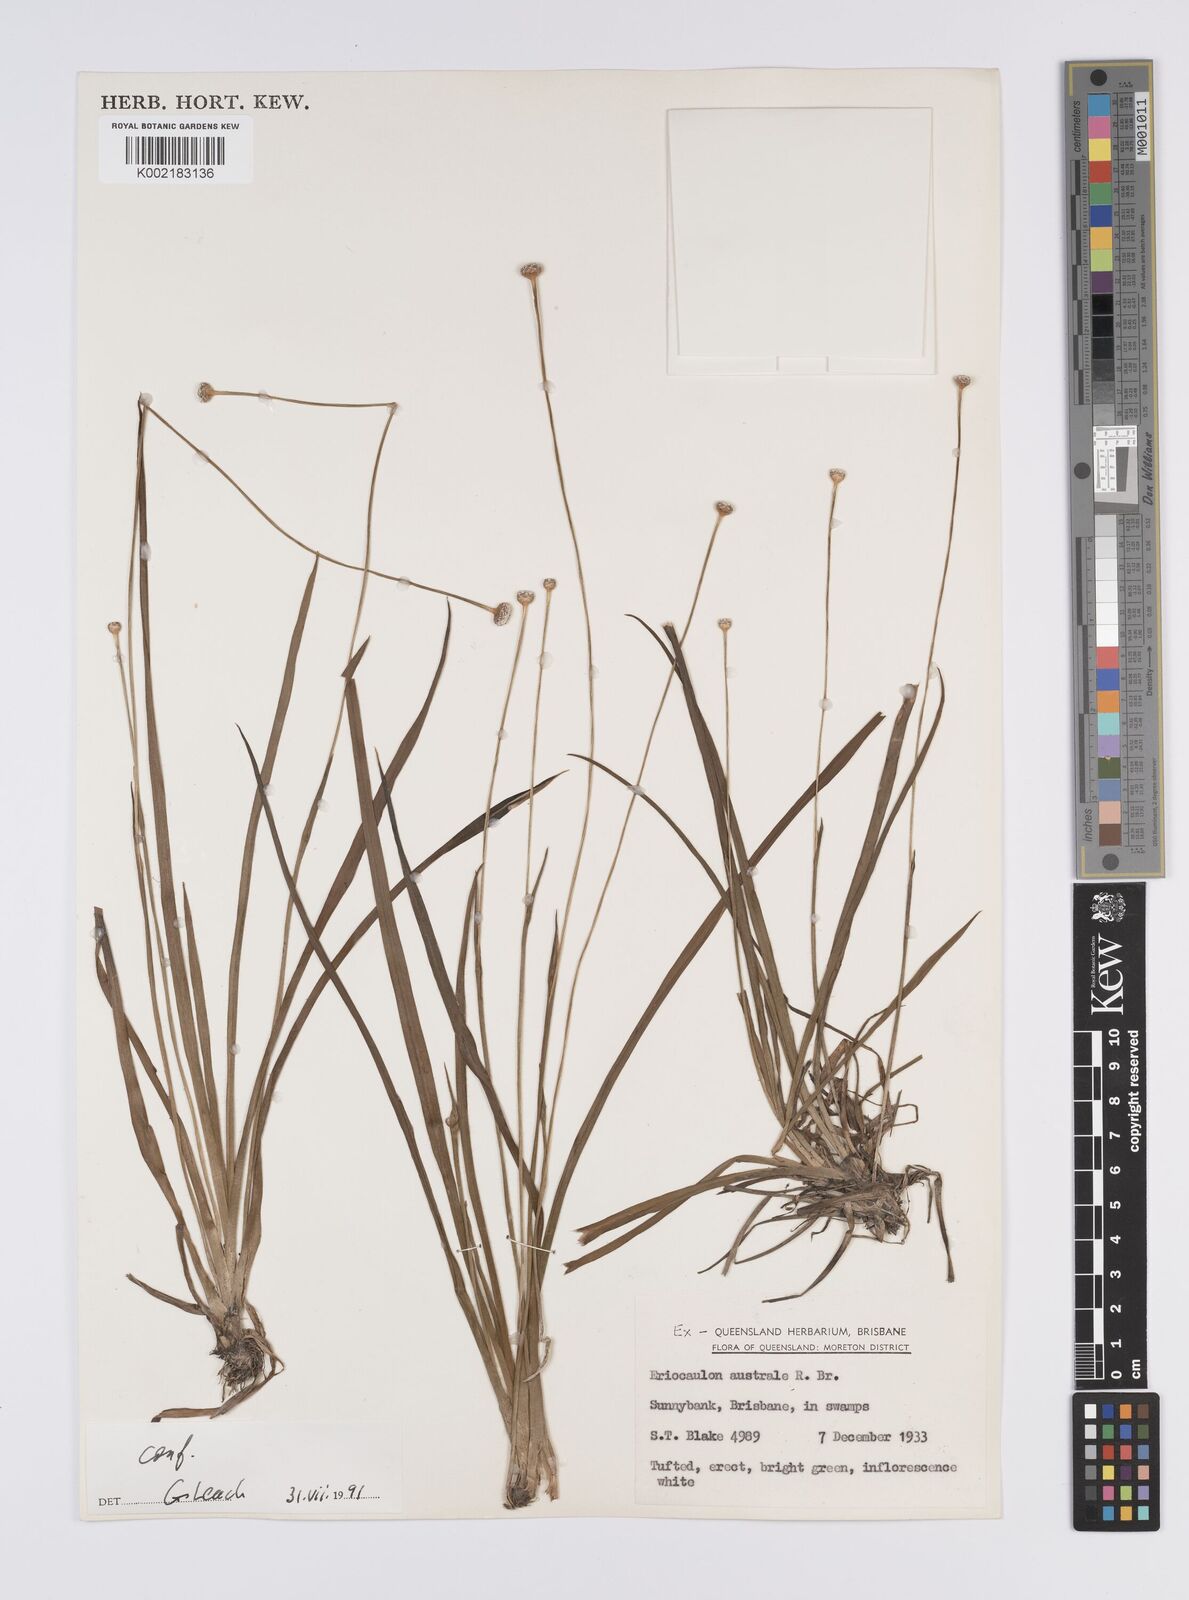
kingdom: Plantae
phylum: Tracheophyta
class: Liliopsida
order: Poales
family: Eriocaulaceae
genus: Eriocaulon
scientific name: Eriocaulon australe
